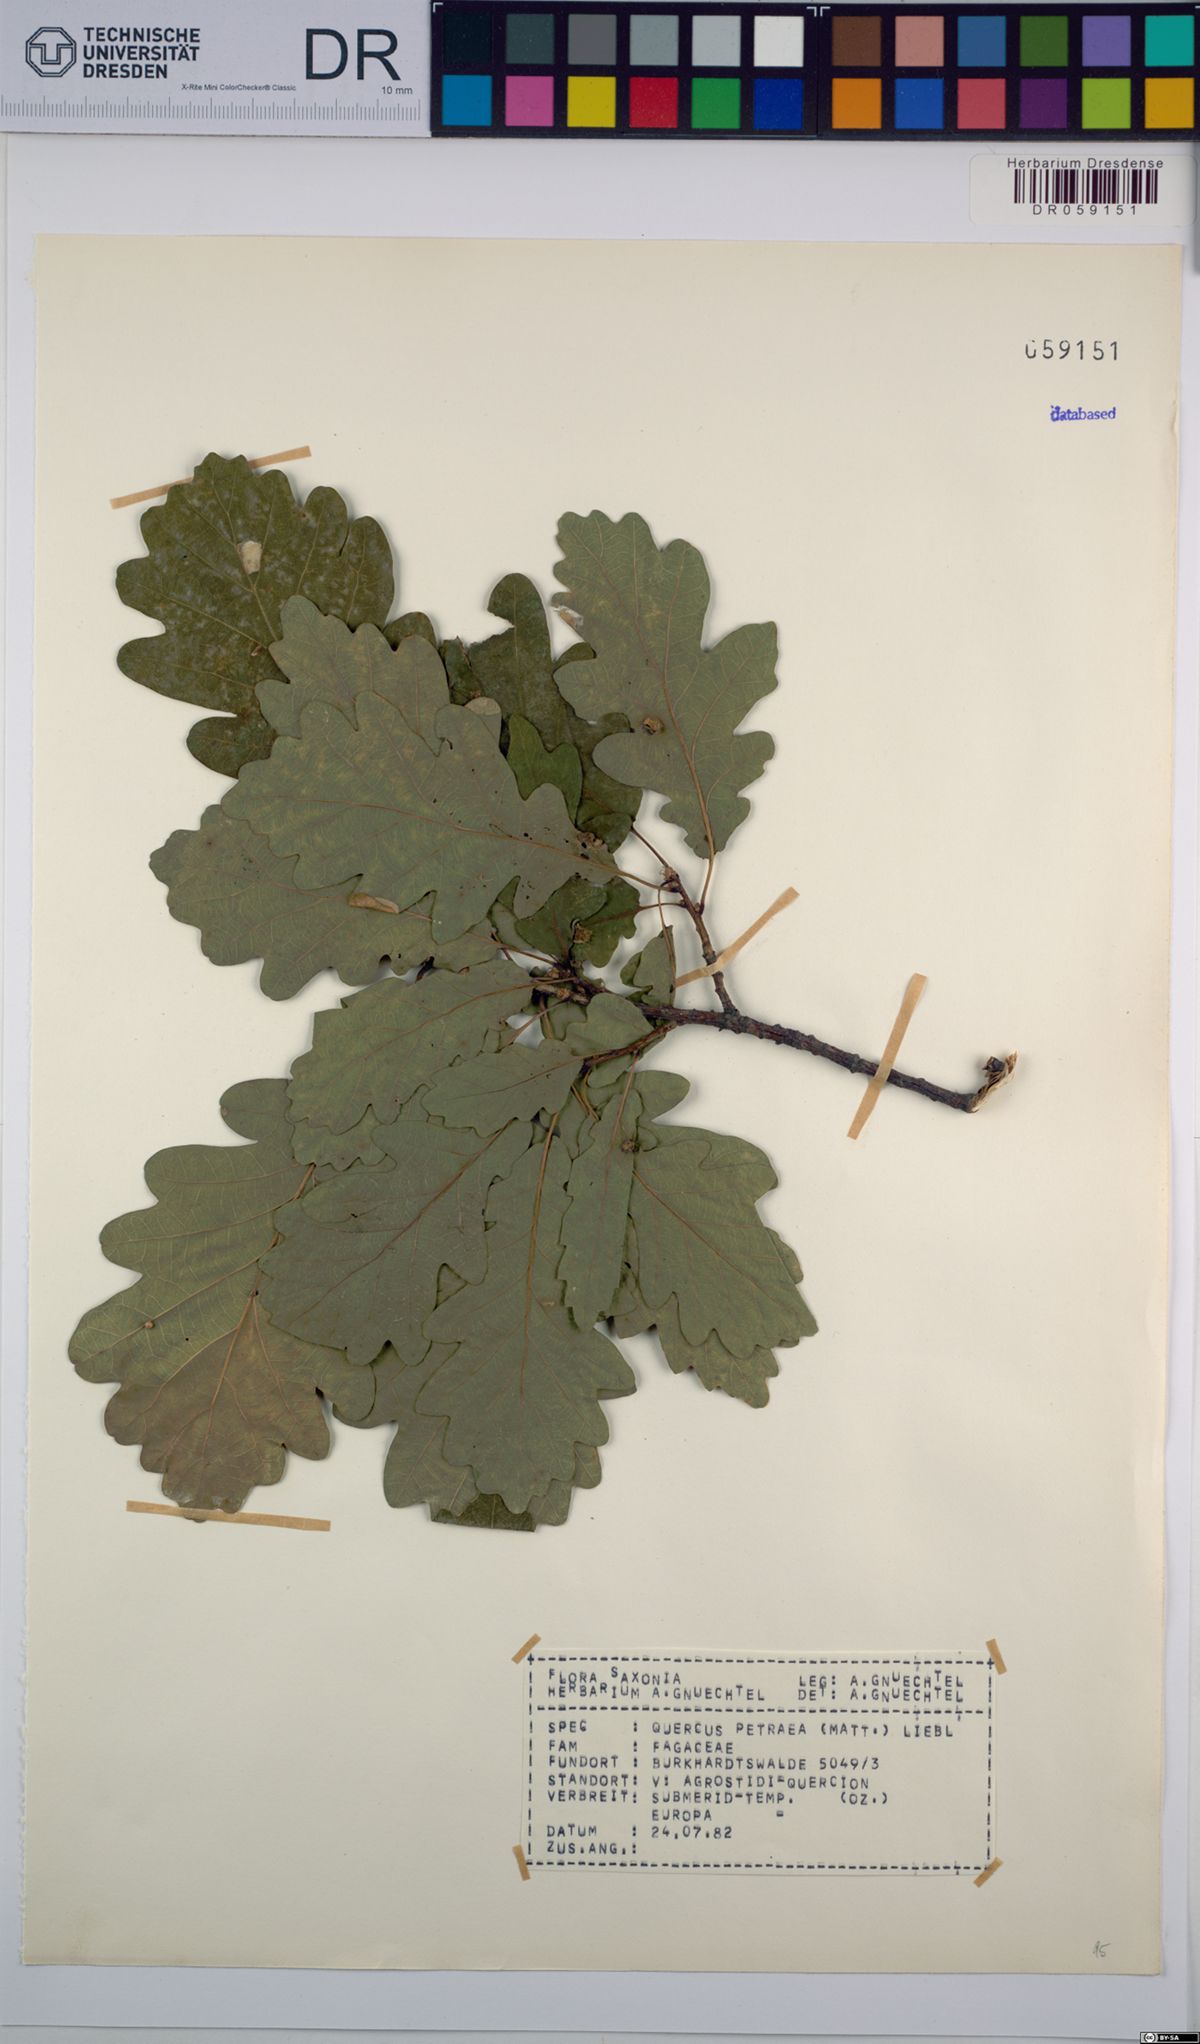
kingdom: Plantae
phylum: Tracheophyta
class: Magnoliopsida
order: Fagales
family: Fagaceae
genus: Quercus
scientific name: Quercus petraea
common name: Sessile oak
